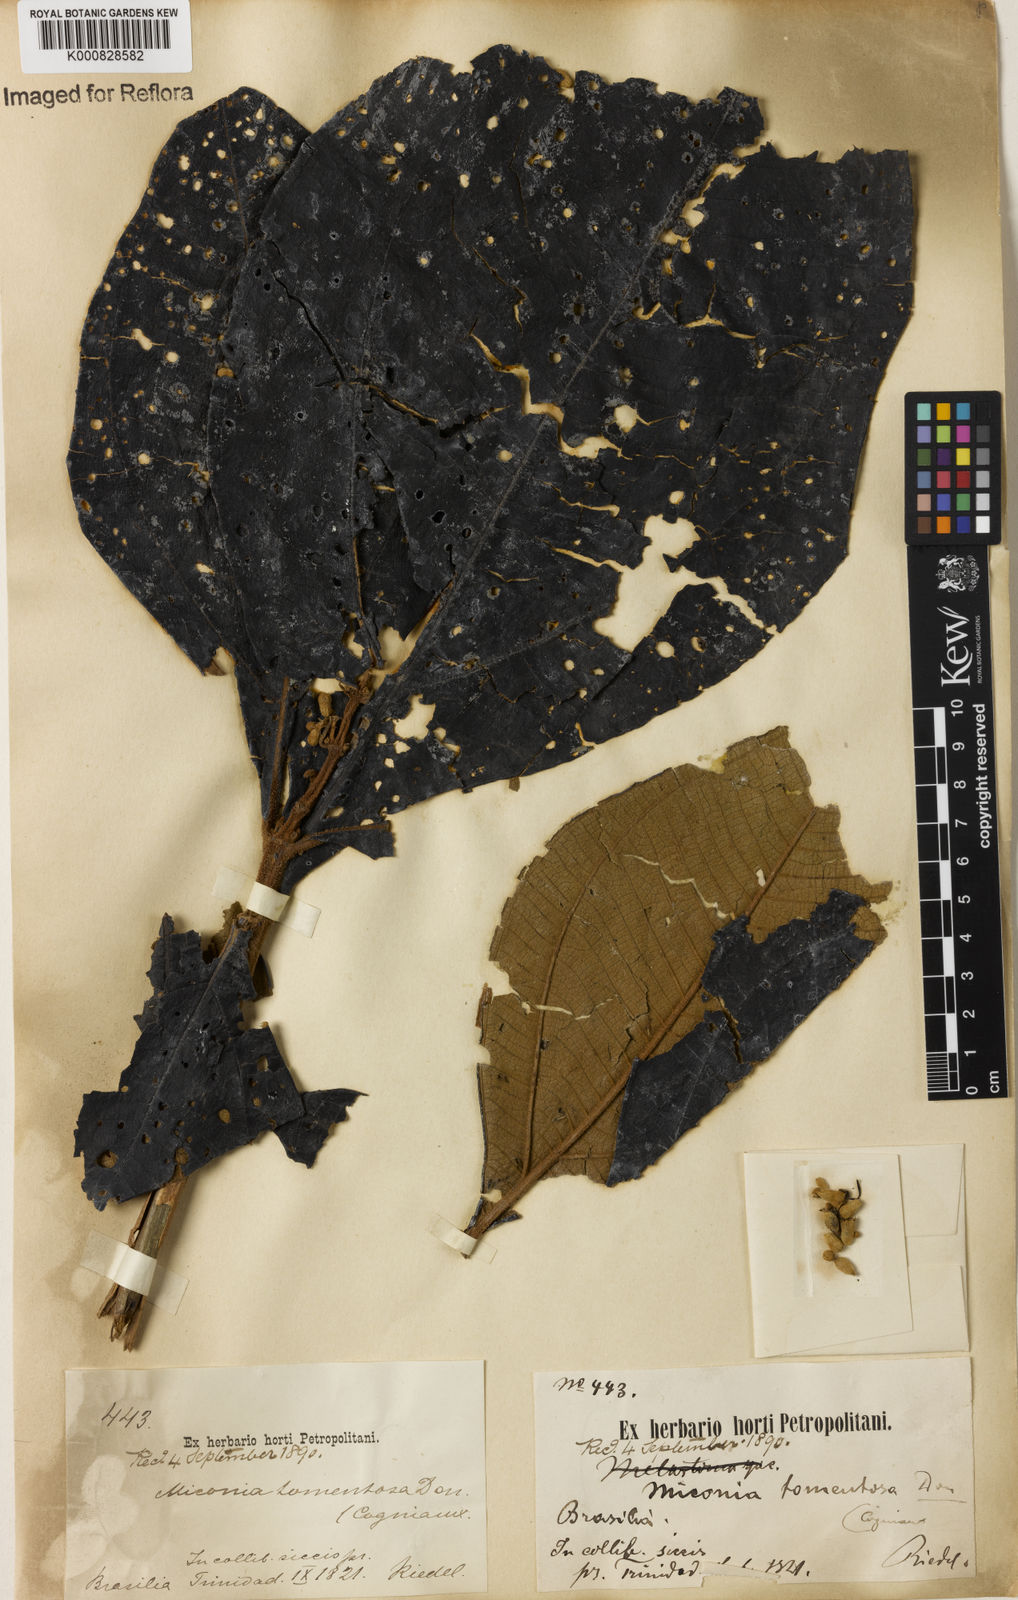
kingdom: Plantae
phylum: Tracheophyta
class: Magnoliopsida
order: Myrtales
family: Melastomataceae
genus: Miconia
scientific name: Miconia tomentosa
